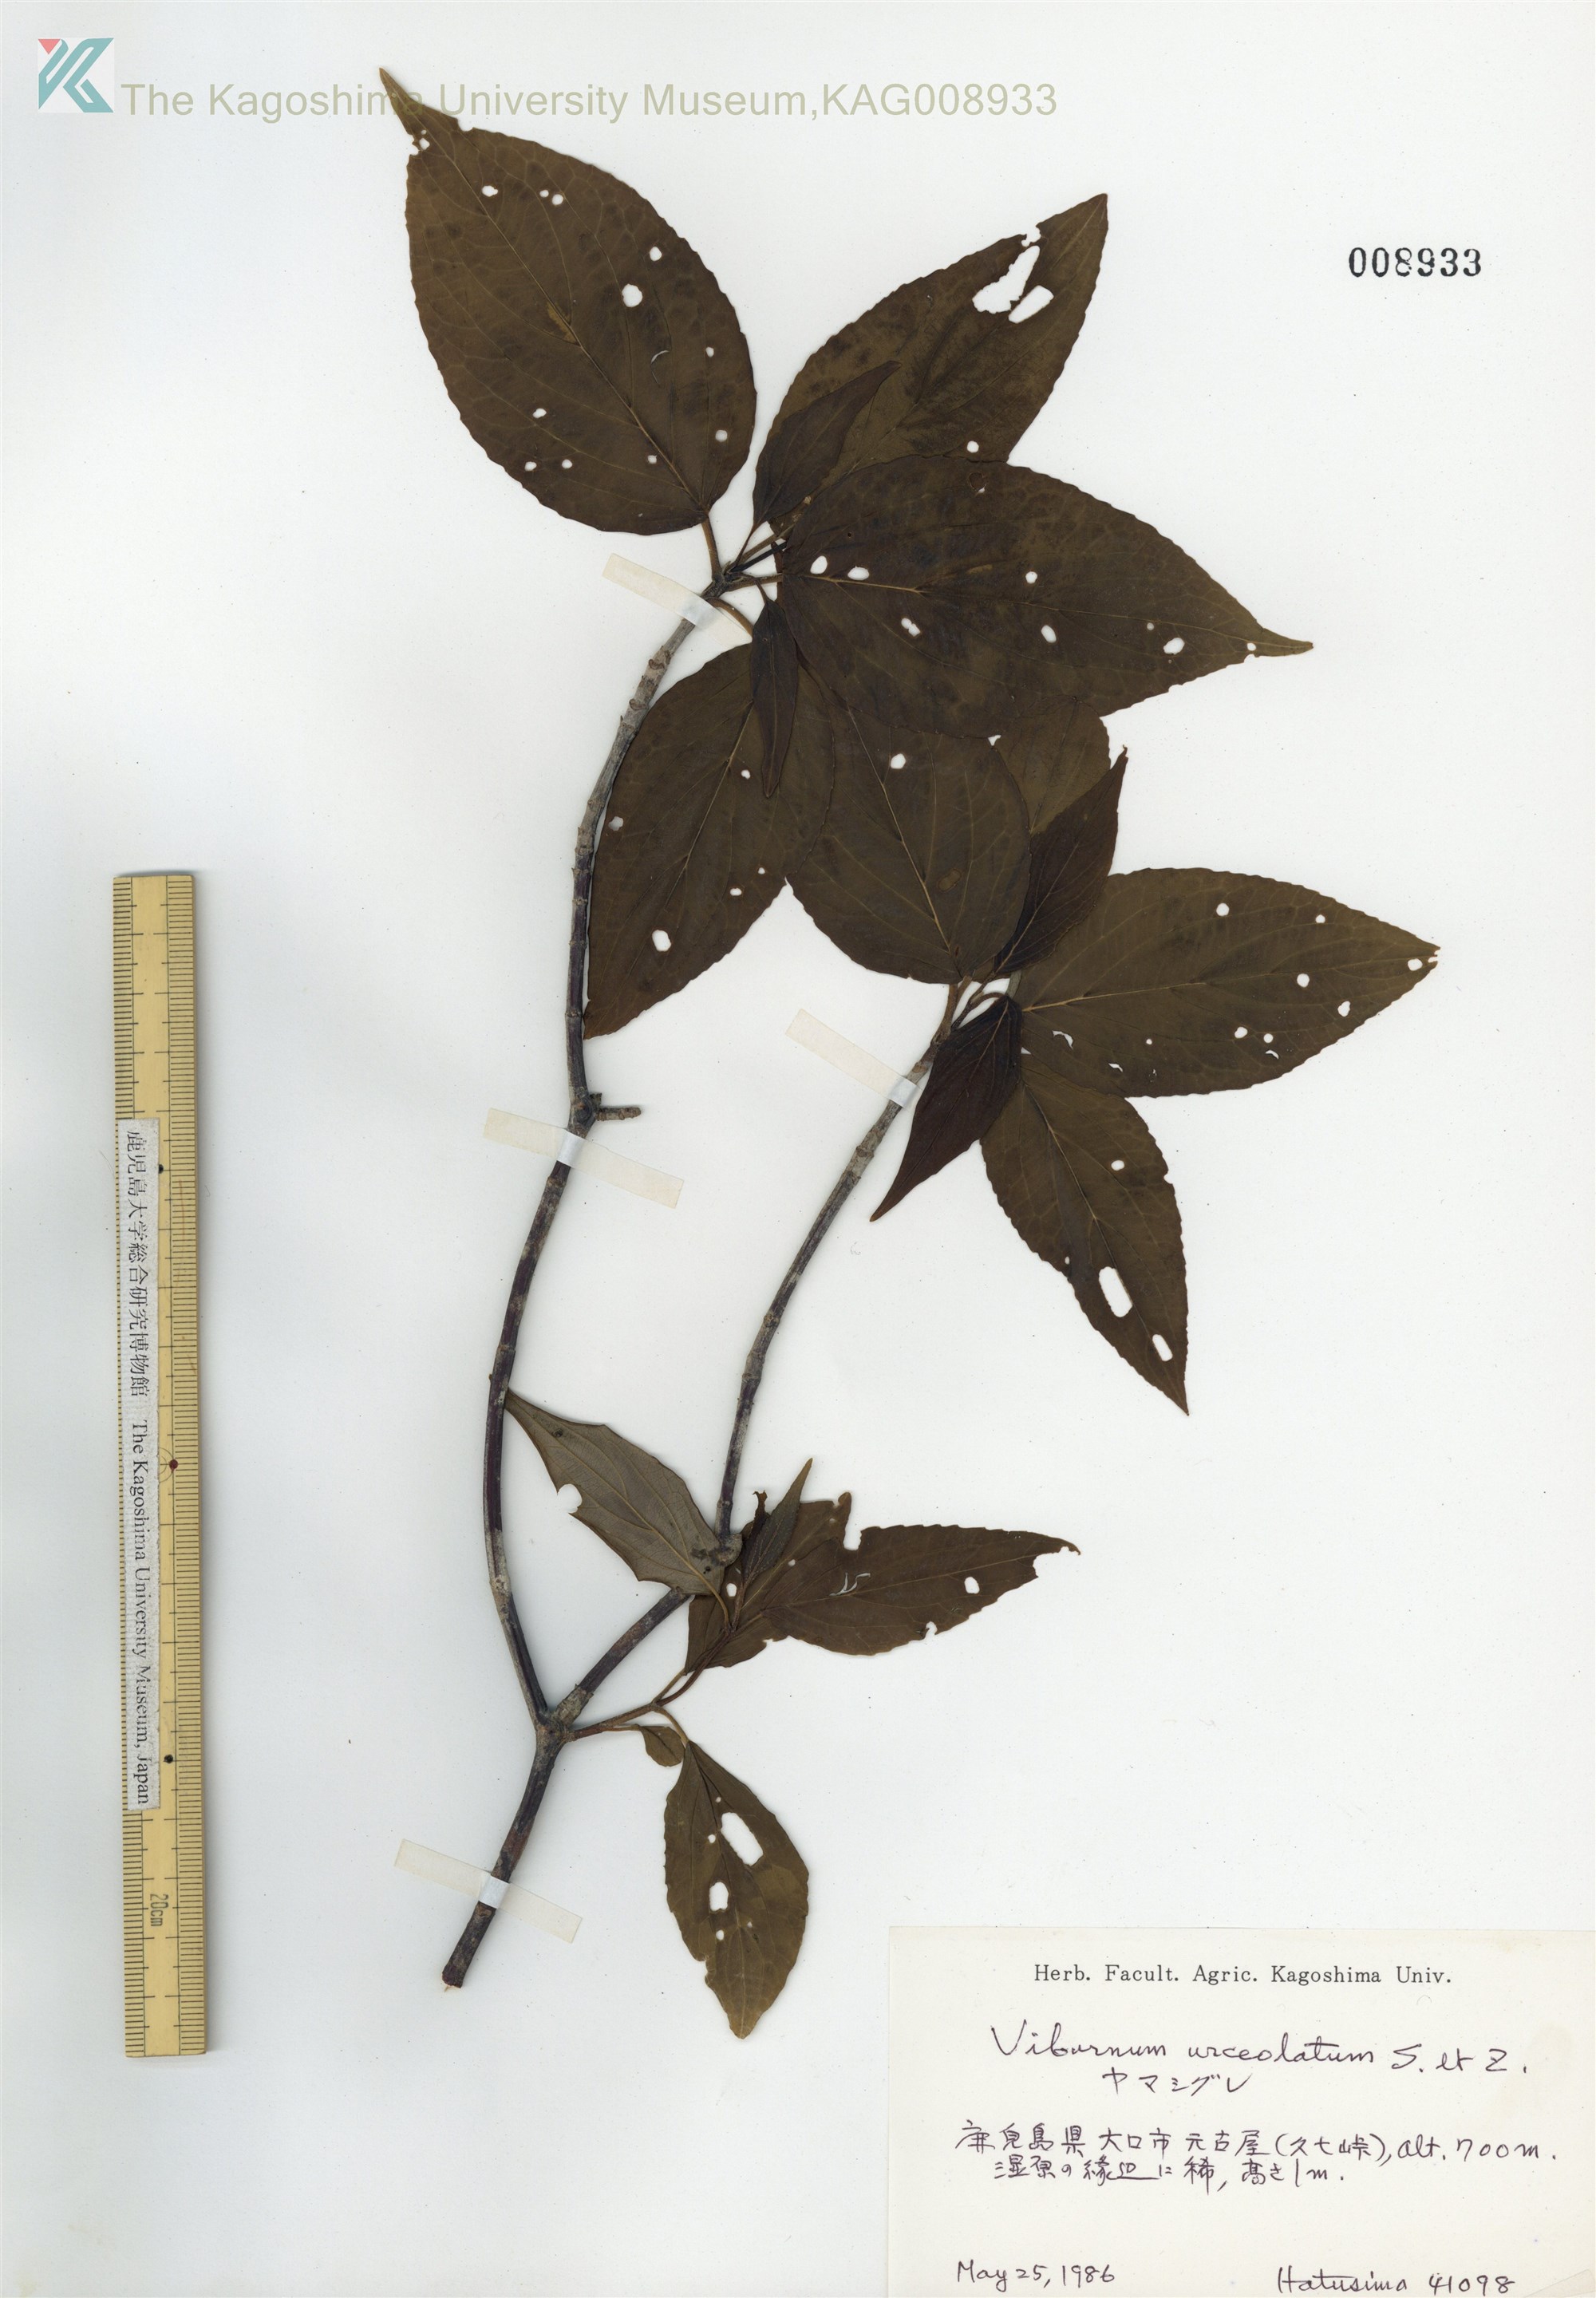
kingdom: Plantae
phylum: Tracheophyta
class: Magnoliopsida
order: Dipsacales
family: Viburnaceae
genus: Viburnum
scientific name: Viburnum urceolatum
